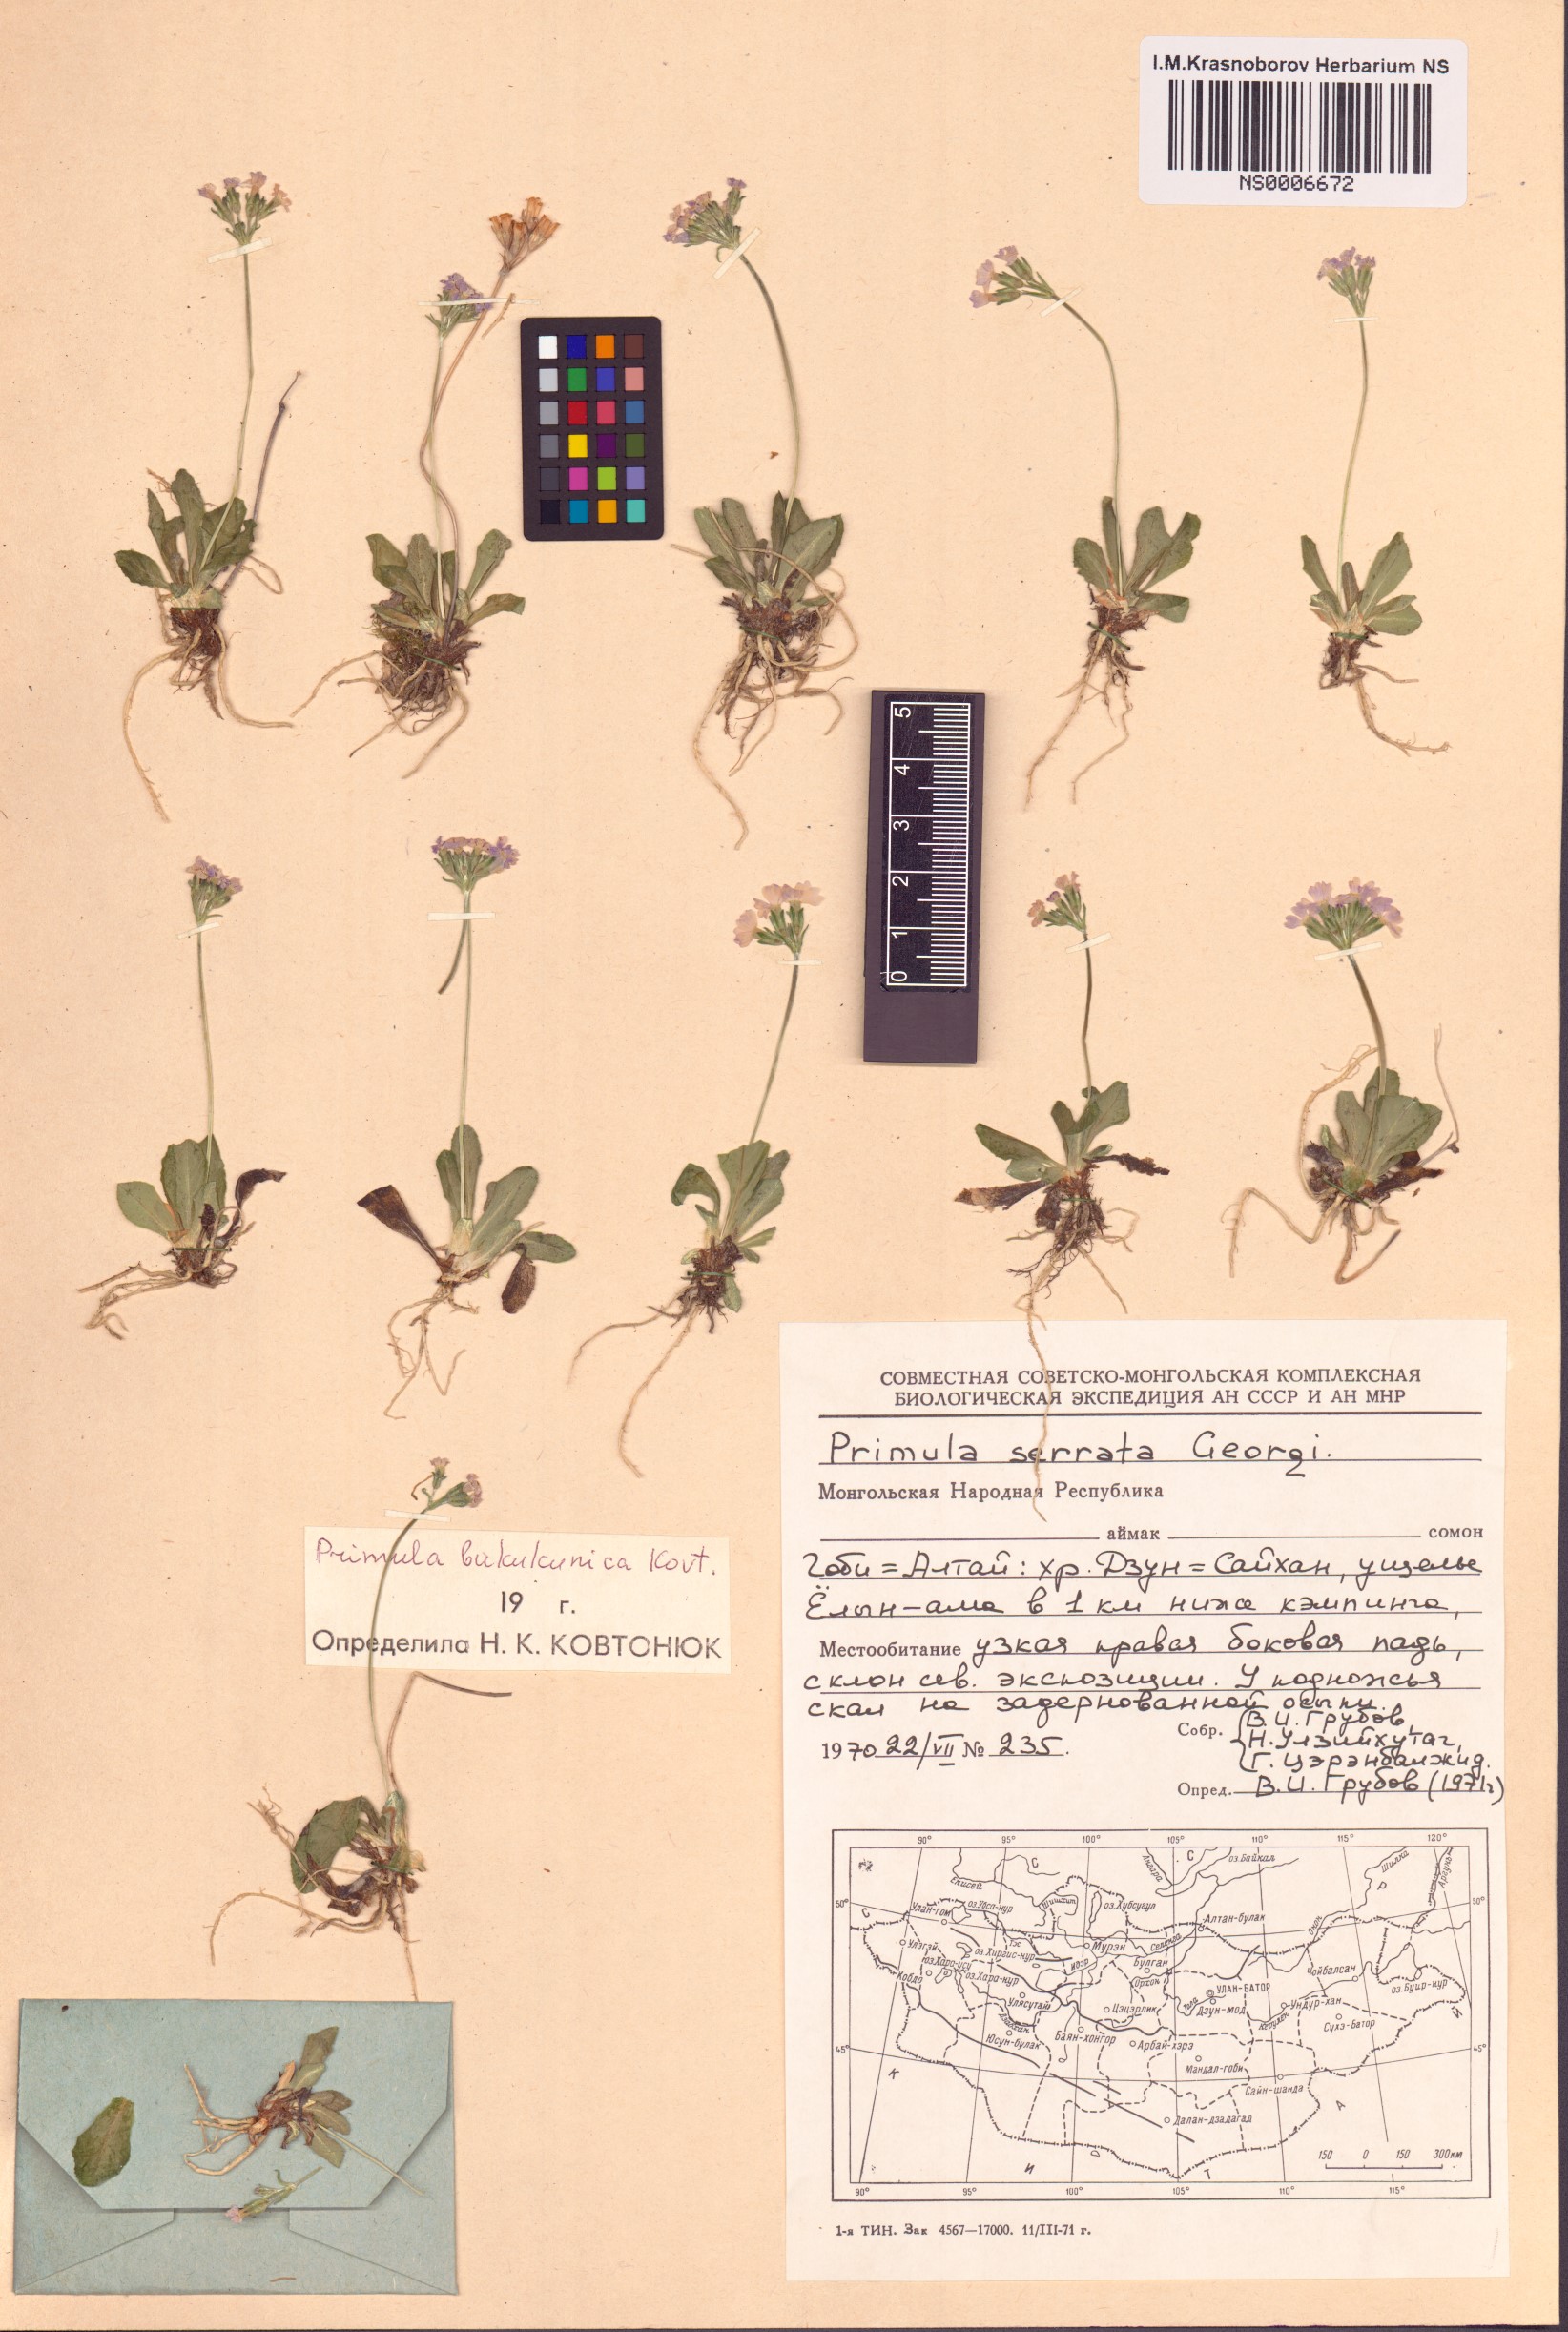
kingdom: Plantae
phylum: Tracheophyta
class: Magnoliopsida
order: Ericales
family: Primulaceae
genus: Primula
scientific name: Primula bukukunica
